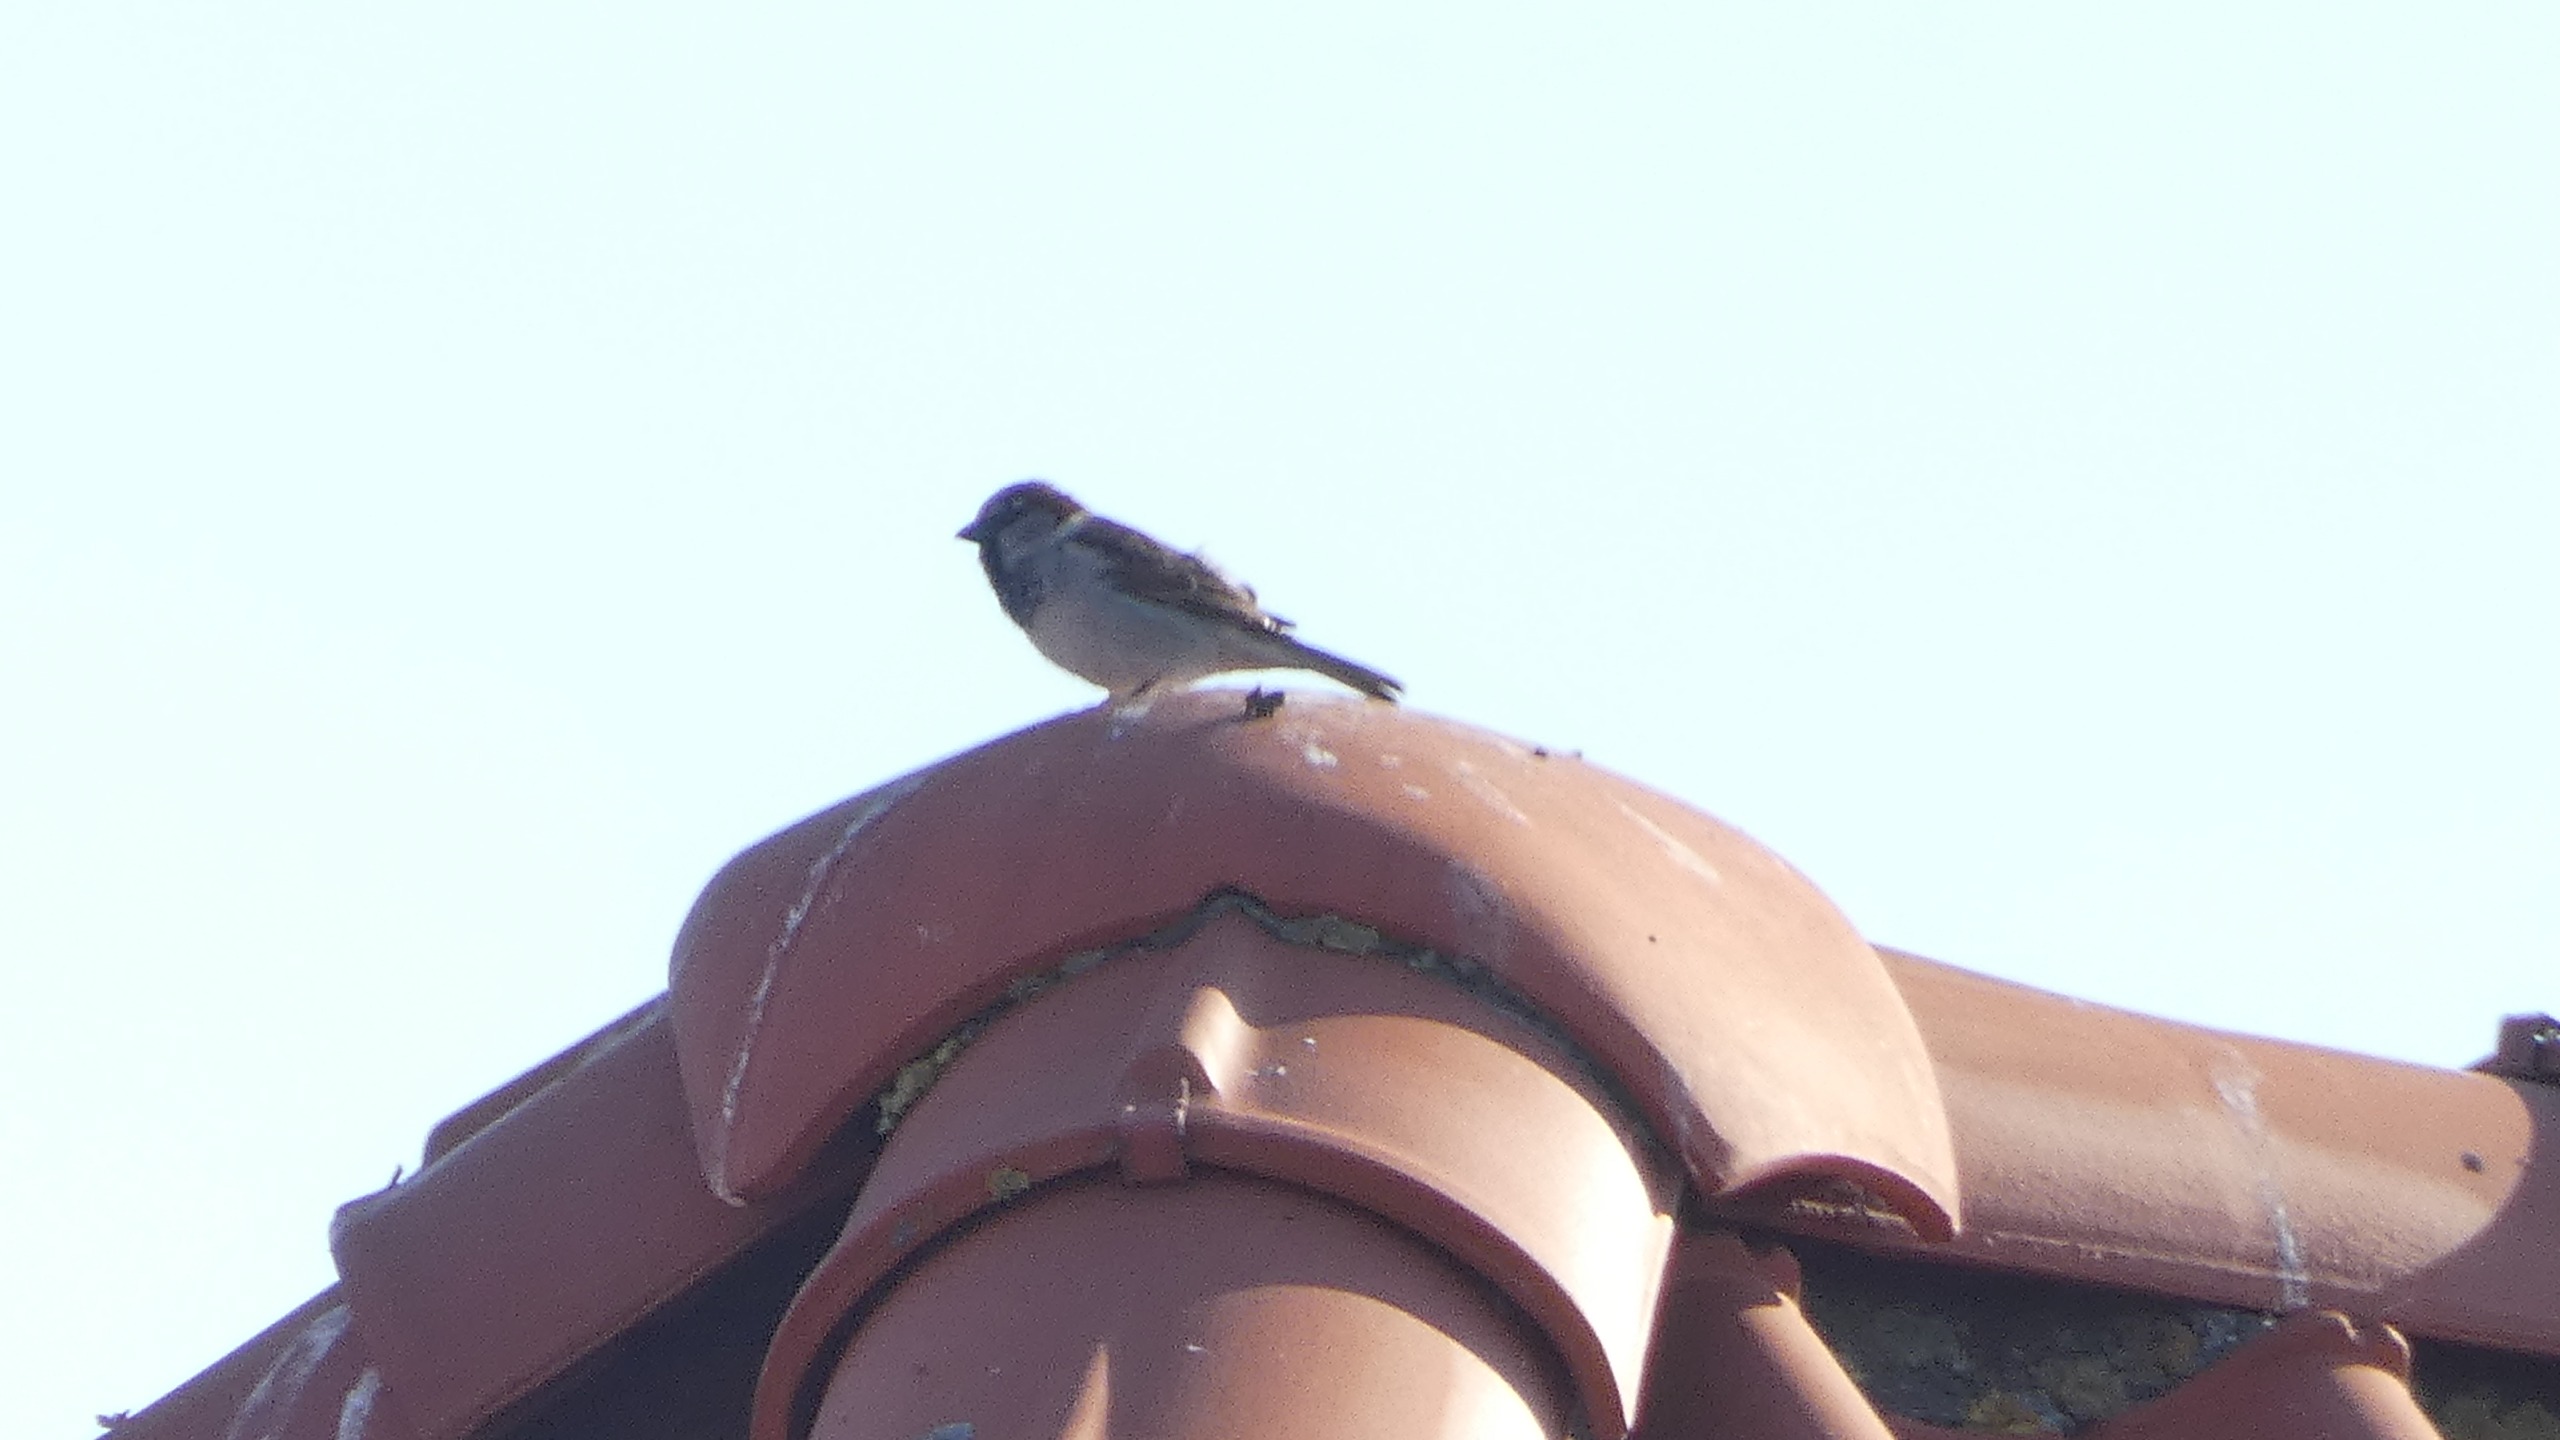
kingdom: Animalia
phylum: Chordata
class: Aves
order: Passeriformes
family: Passeridae
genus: Passer
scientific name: Passer domesticus
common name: Gråspurv
